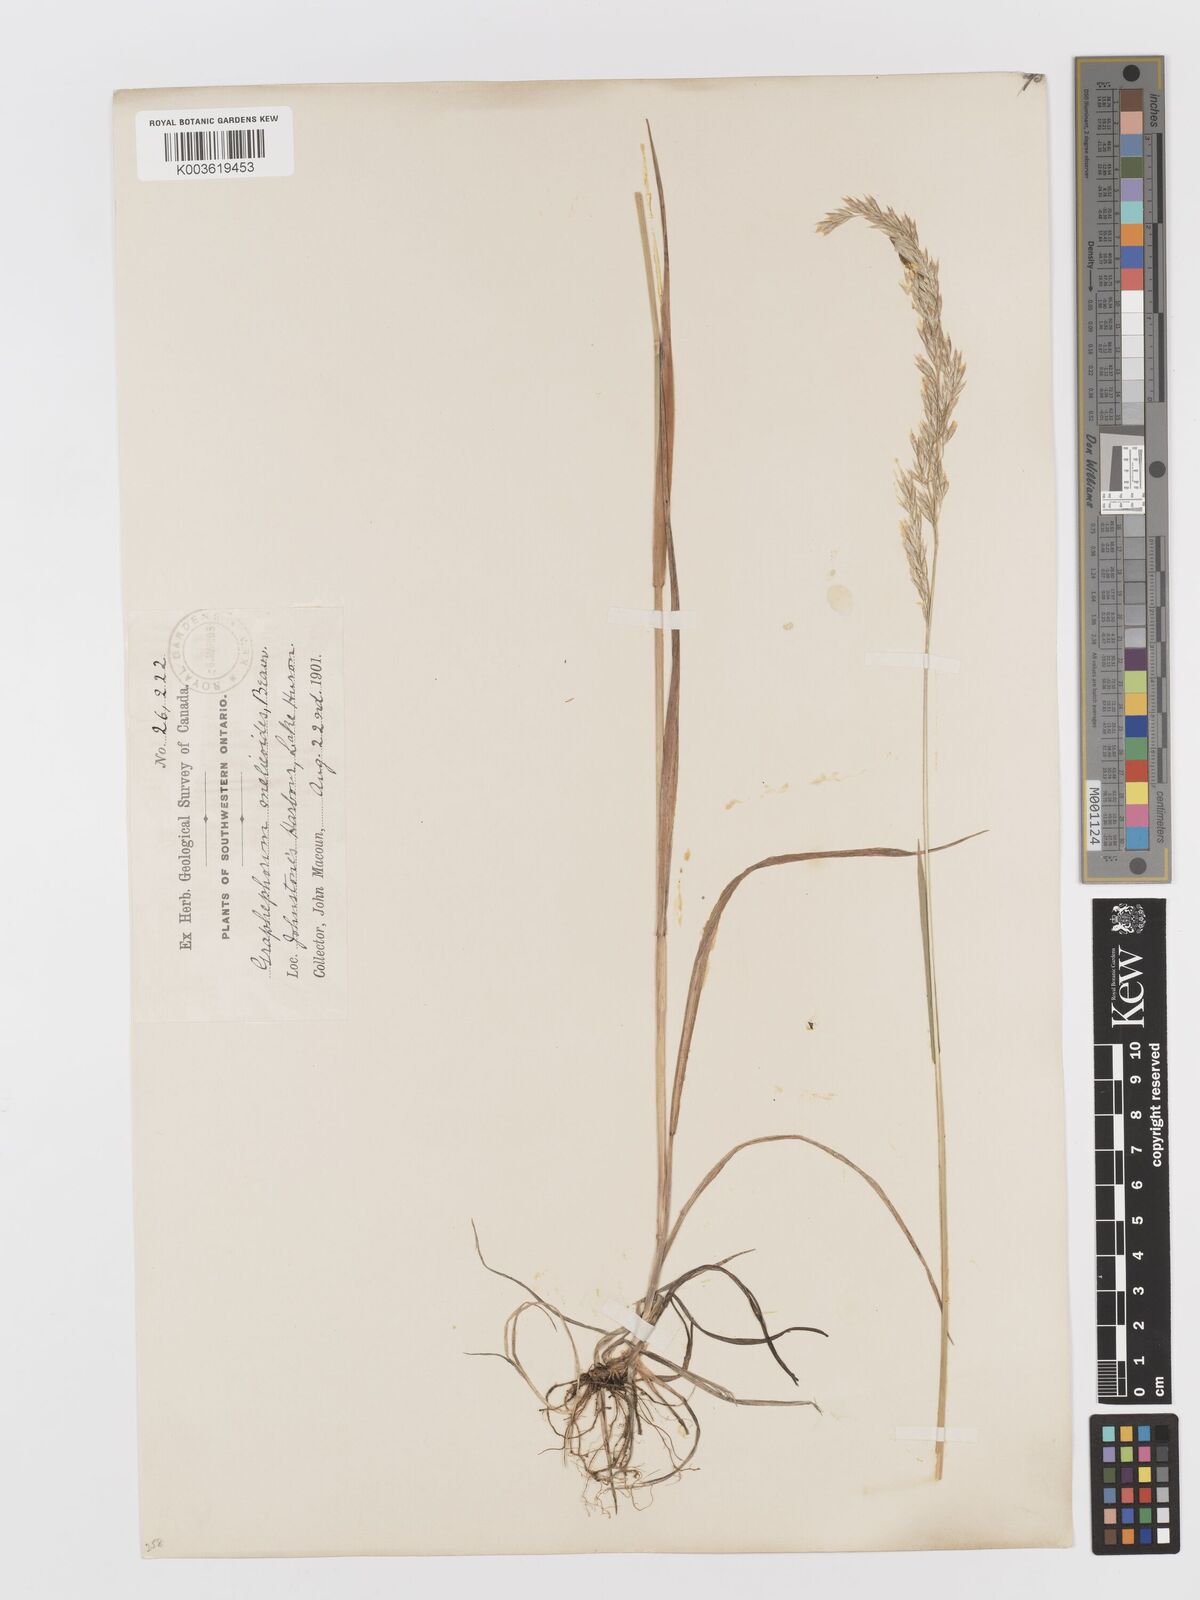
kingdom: Plantae
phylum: Tracheophyta
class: Liliopsida
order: Poales
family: Poaceae
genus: Graphephorum
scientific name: Graphephorum melicoides
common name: False melic
